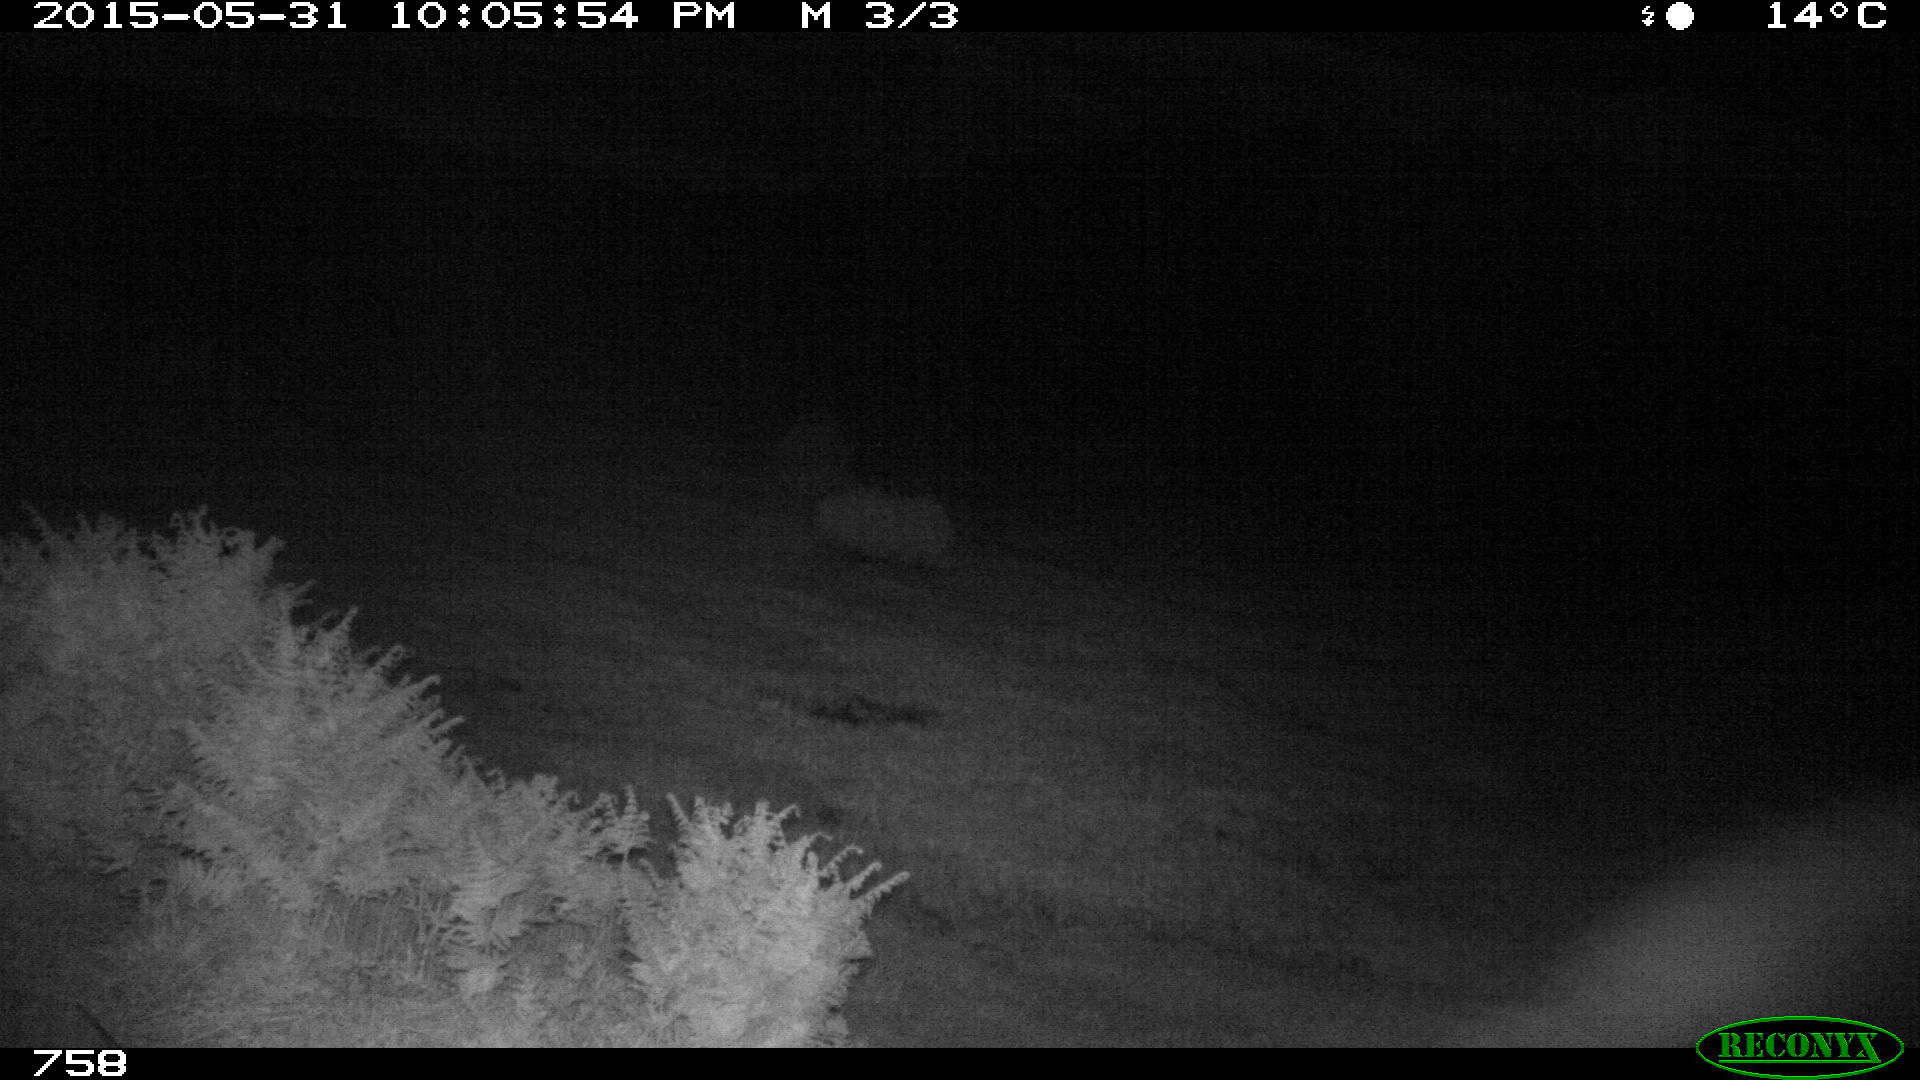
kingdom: Animalia
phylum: Chordata
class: Mammalia
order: Perissodactyla
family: Equidae
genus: Equus
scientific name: Equus caballus
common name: Horse
